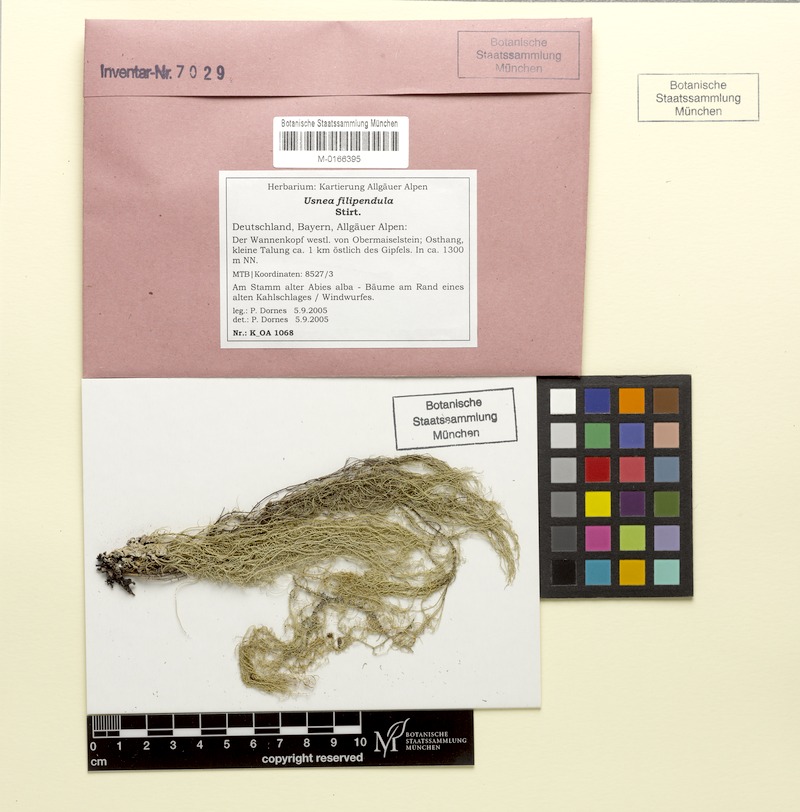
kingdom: Fungi
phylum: Ascomycota
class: Lecanoromycetes
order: Lecanorales
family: Parmeliaceae
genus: Usnea
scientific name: Usnea filipendula
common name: Fishbone beard lichen
